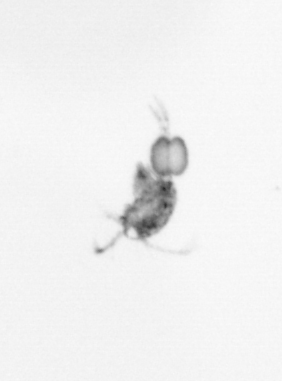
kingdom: Animalia
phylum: Arthropoda
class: Copepoda
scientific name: Copepoda
